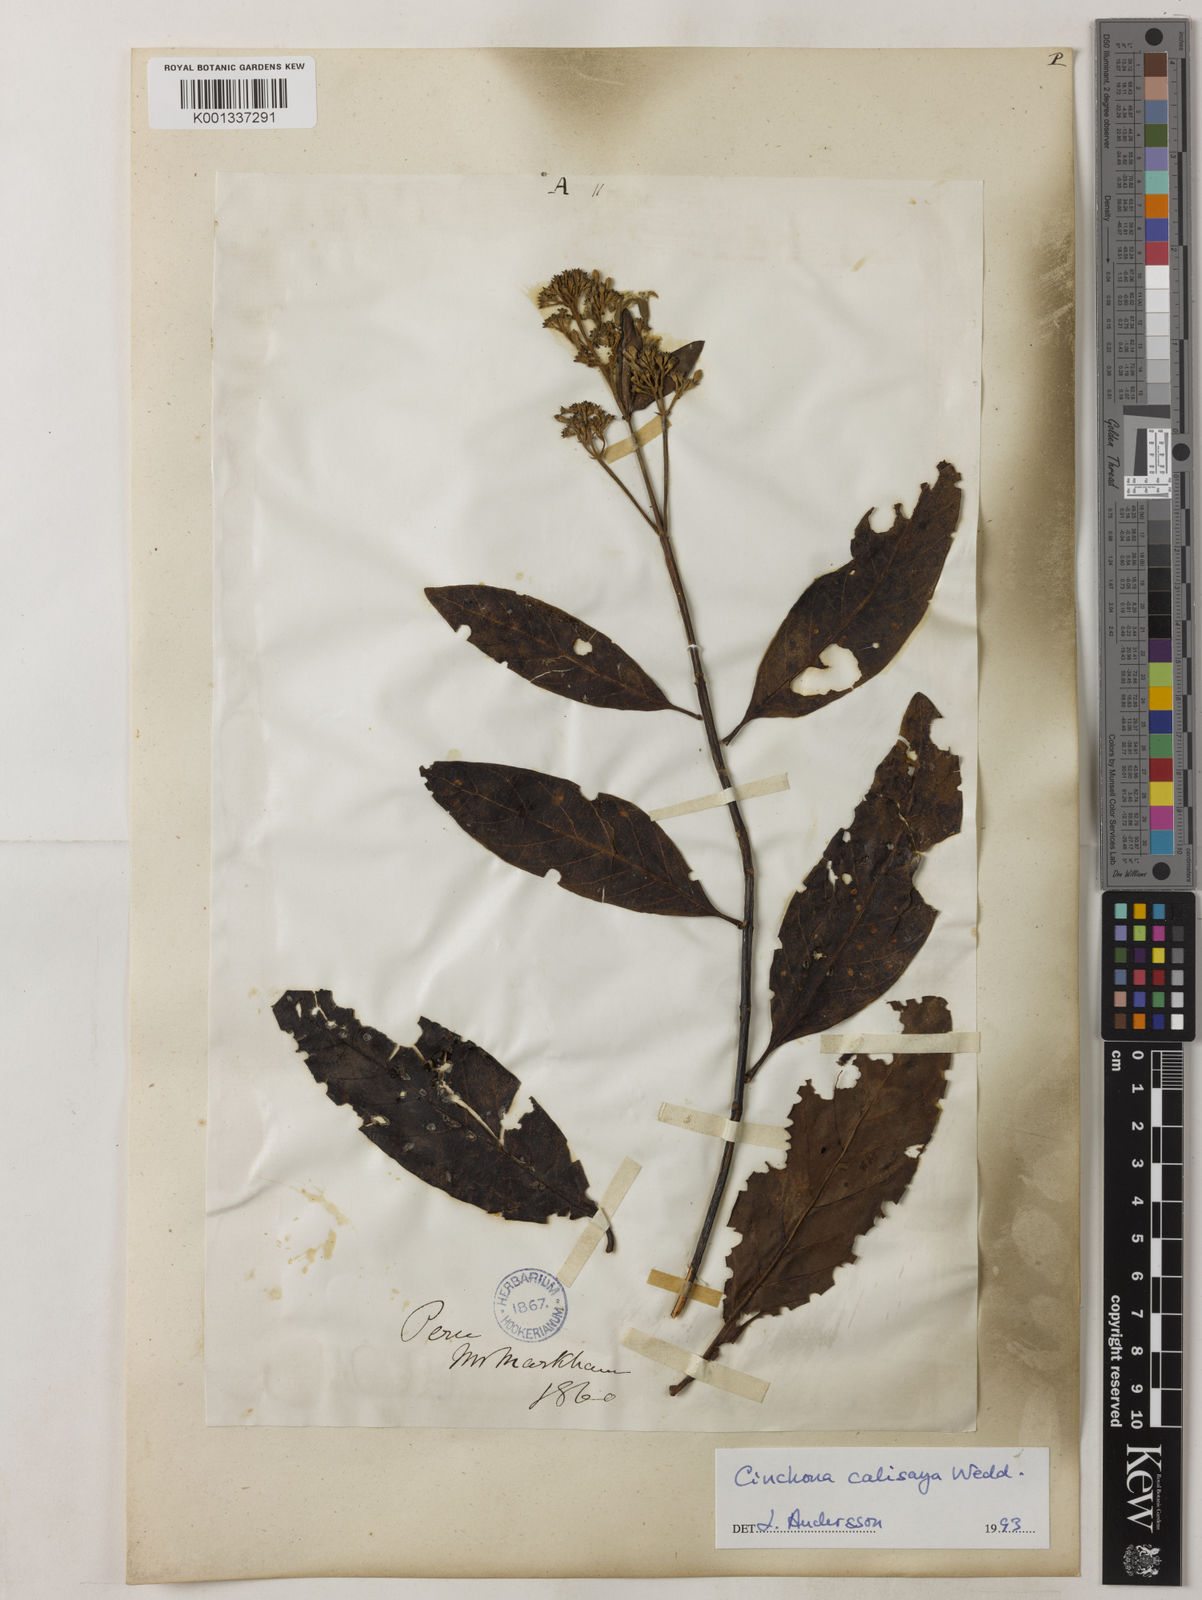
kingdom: Plantae
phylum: Tracheophyta
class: Magnoliopsida
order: Gentianales
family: Rubiaceae
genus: Cinchona
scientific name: Cinchona calisaya
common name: Ledgerbark
